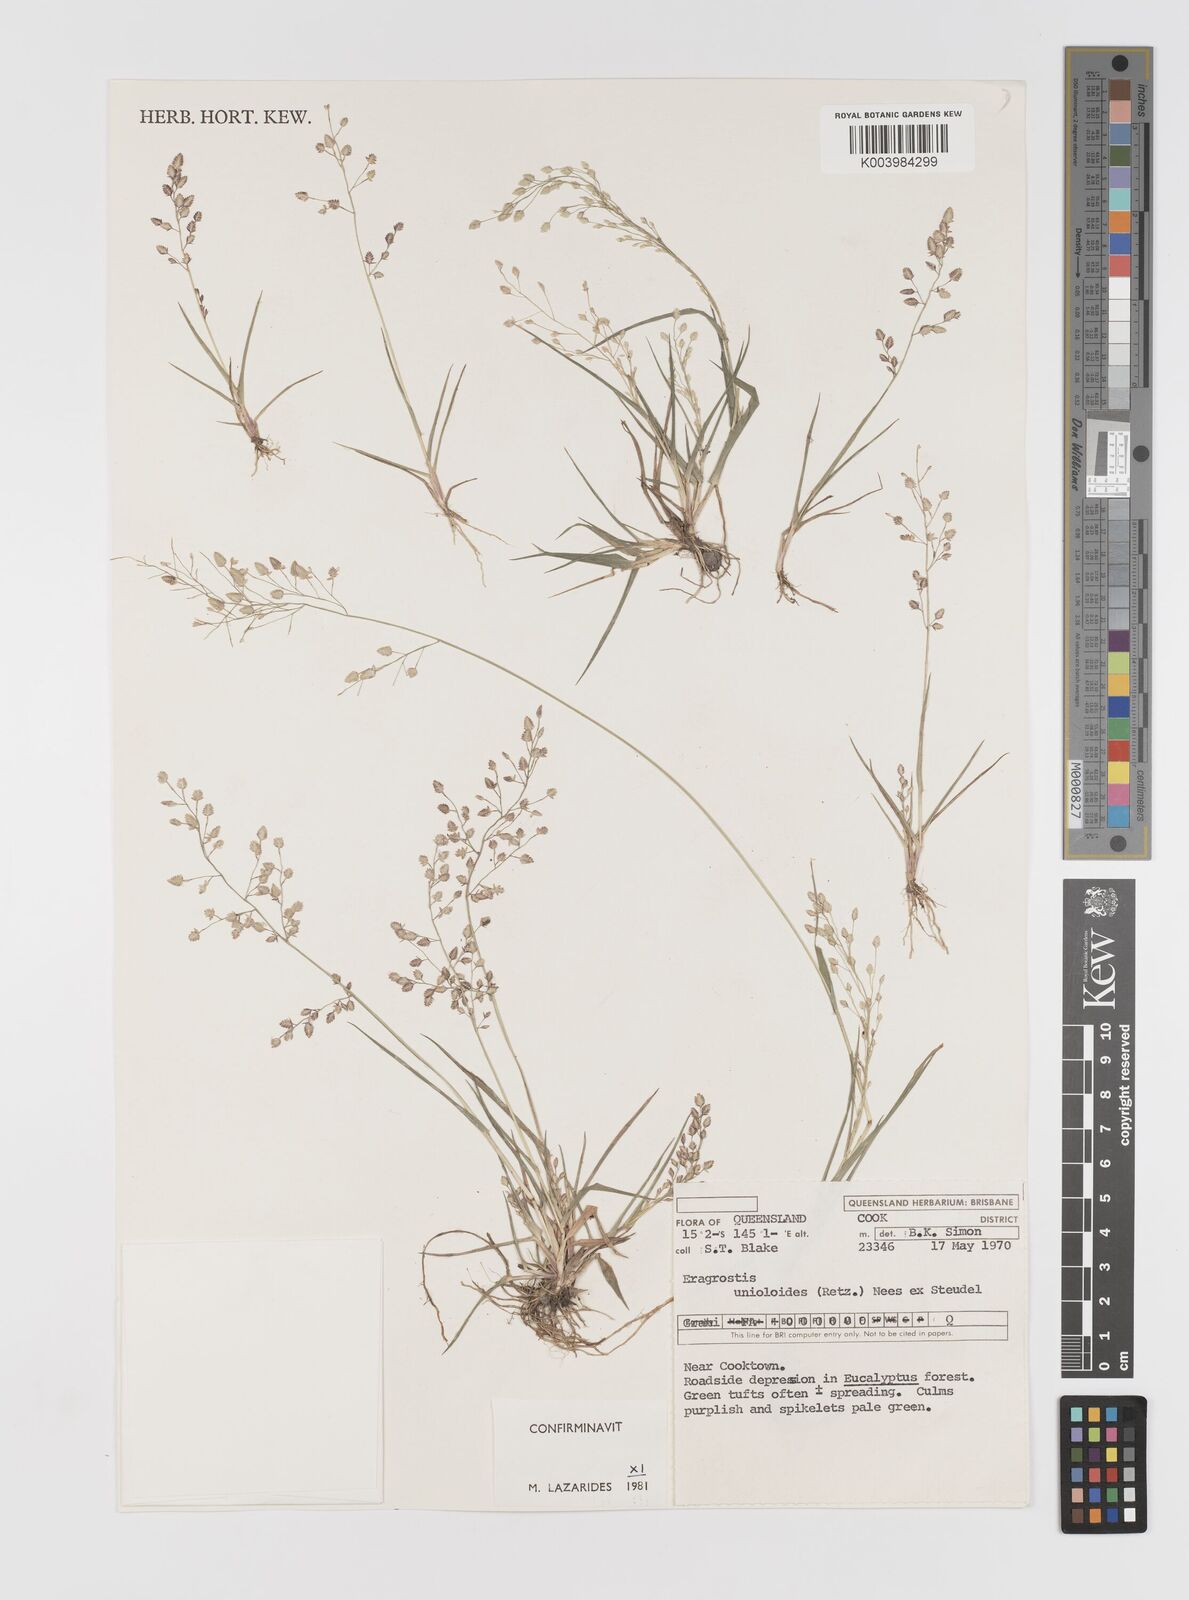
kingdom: Plantae
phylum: Tracheophyta
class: Liliopsida
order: Poales
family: Poaceae
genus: Eragrostis
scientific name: Eragrostis unioloides
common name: Chinese lovegrass
